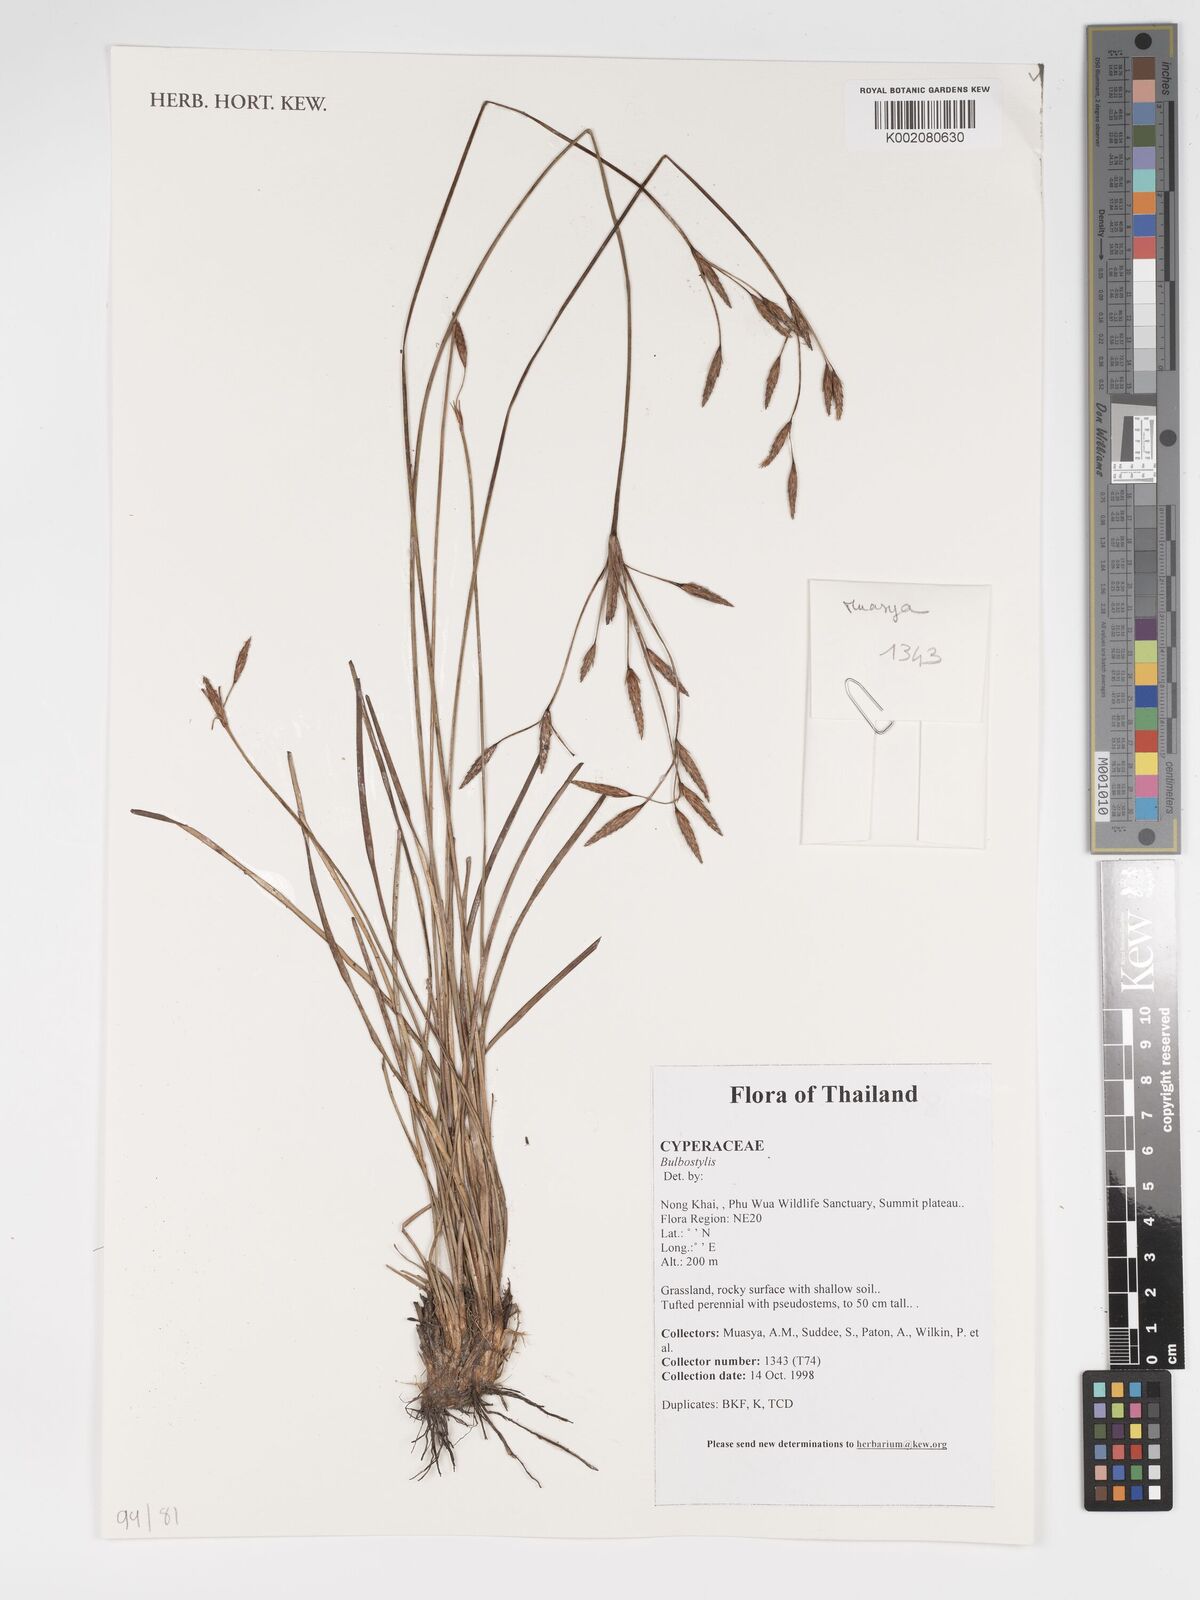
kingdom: Plantae
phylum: Tracheophyta
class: Magnoliopsida
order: Asterales
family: Asteraceae
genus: Bulbostylis
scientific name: Bulbostylis
